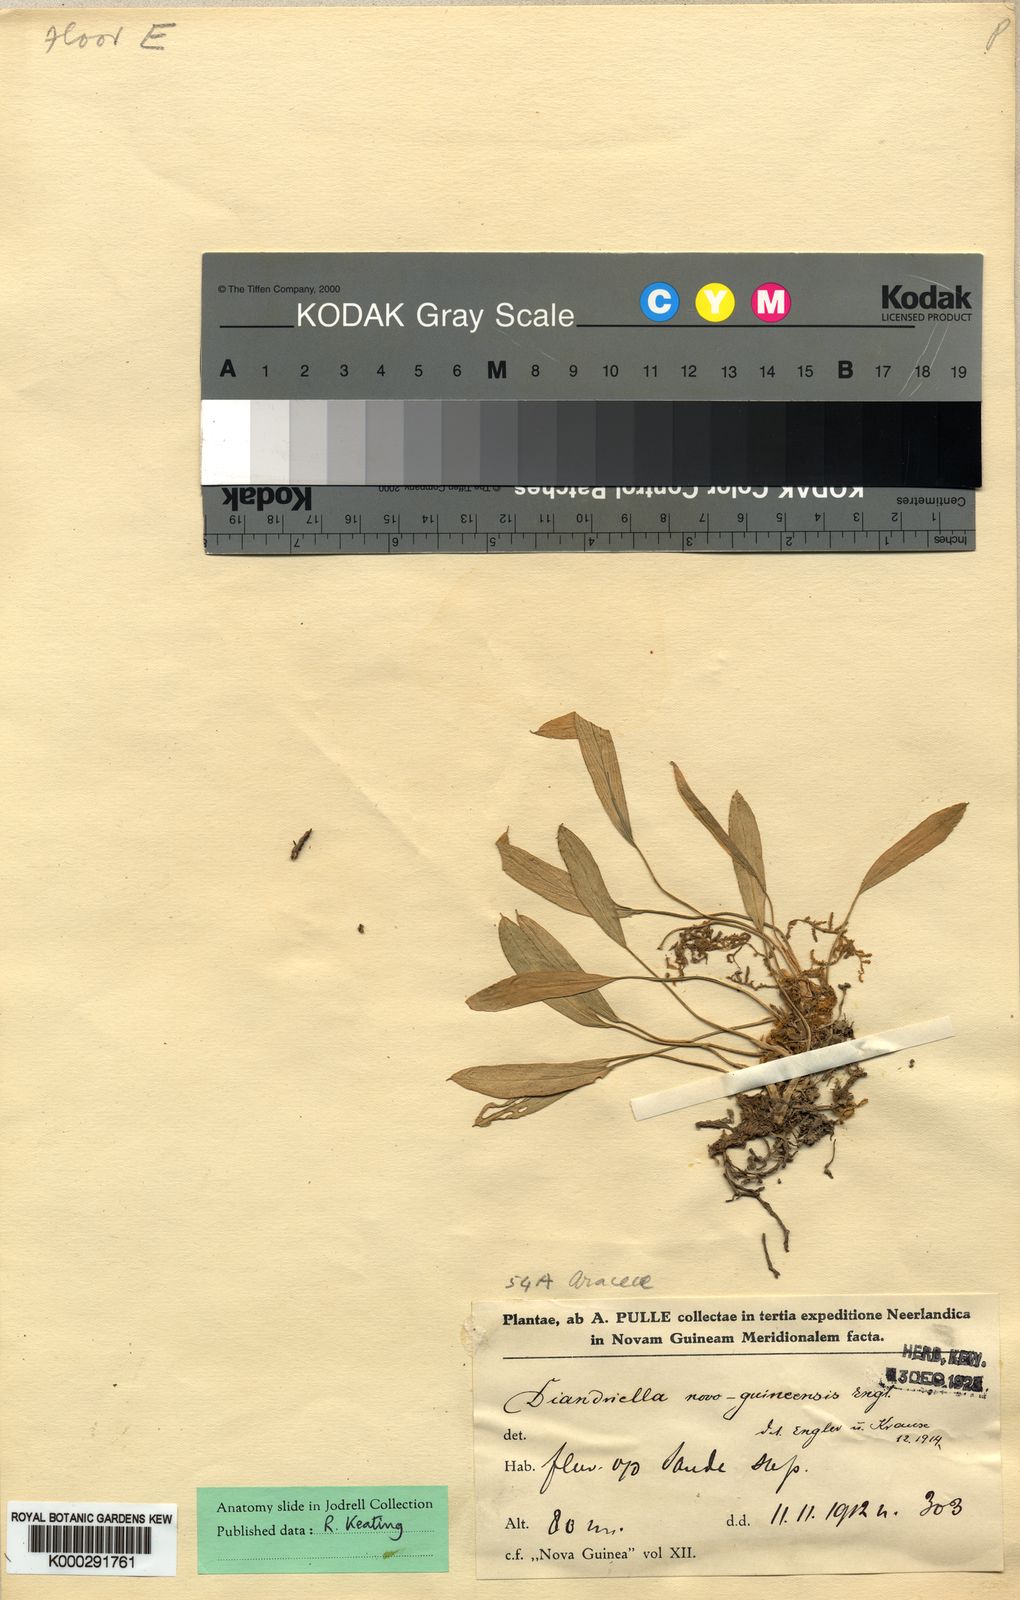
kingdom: Plantae
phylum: Tracheophyta
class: Liliopsida
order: Alismatales
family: Araceae
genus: Homalomena
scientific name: Homalomena stollei
